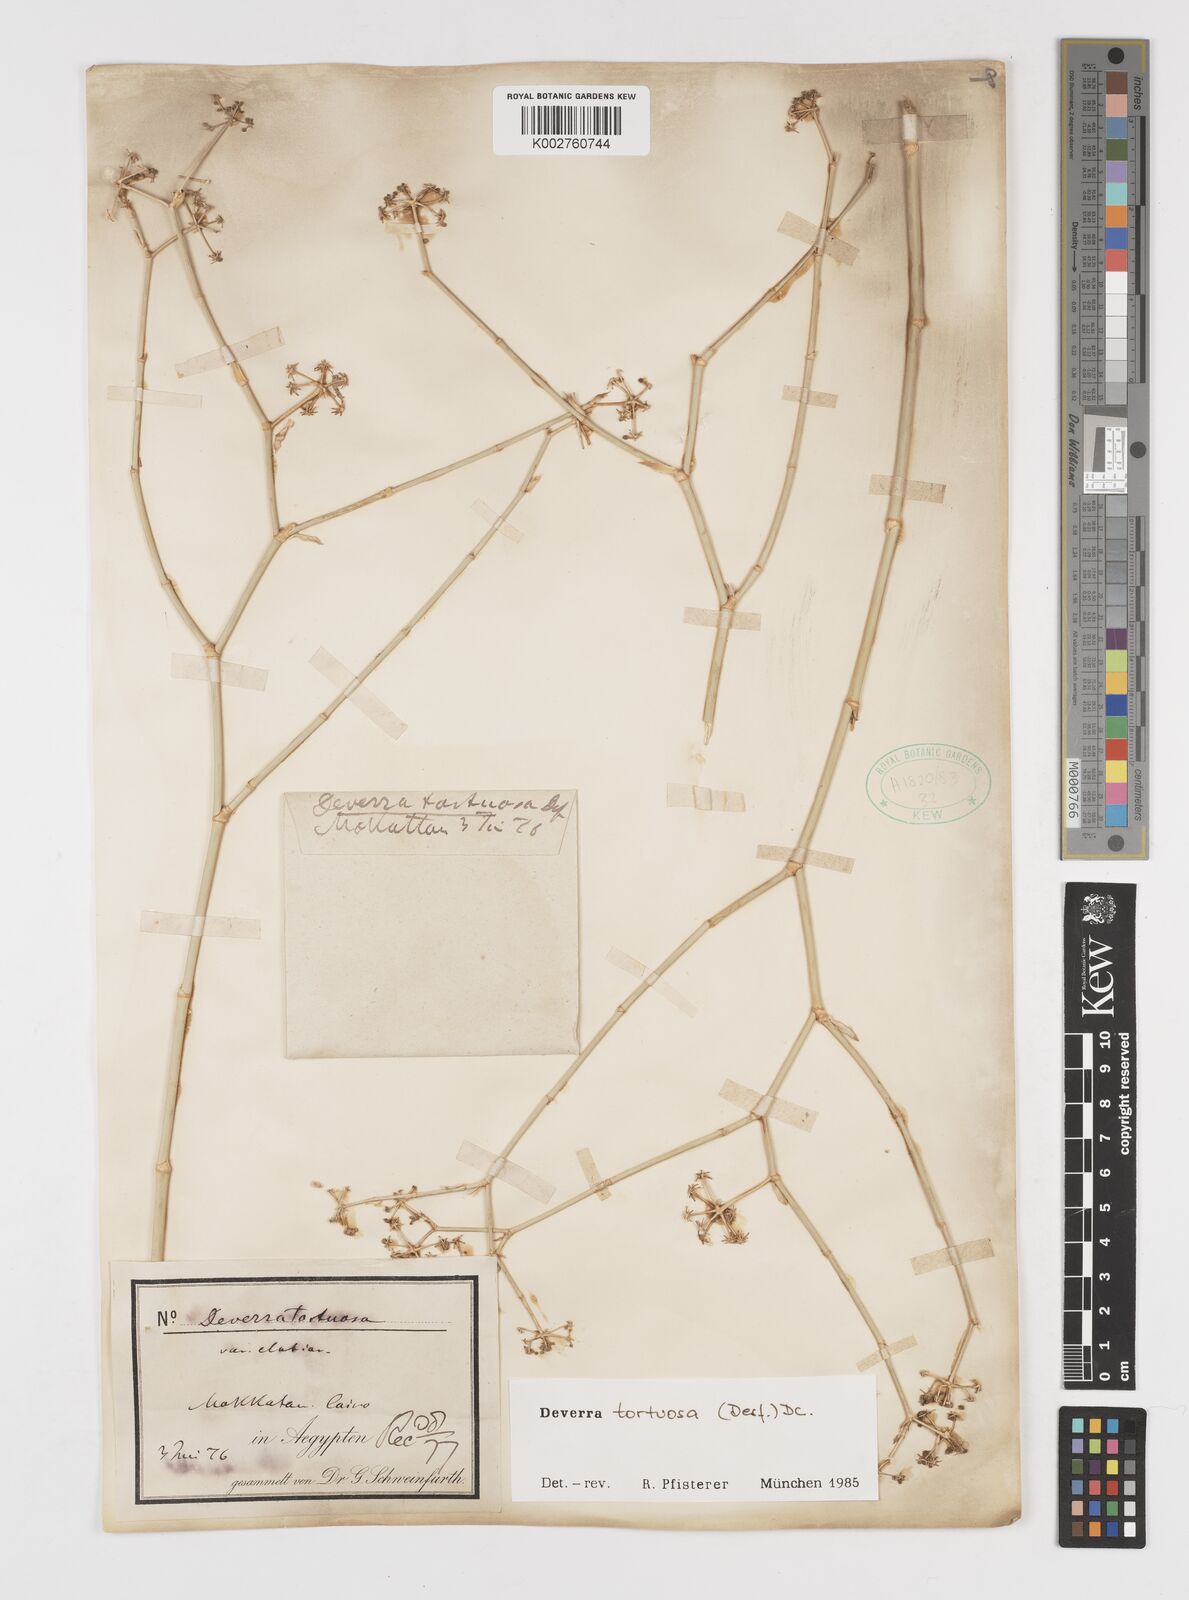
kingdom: Plantae
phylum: Tracheophyta
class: Magnoliopsida
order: Apiales
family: Apiaceae
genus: Deverra
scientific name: Deverra tortuosa
